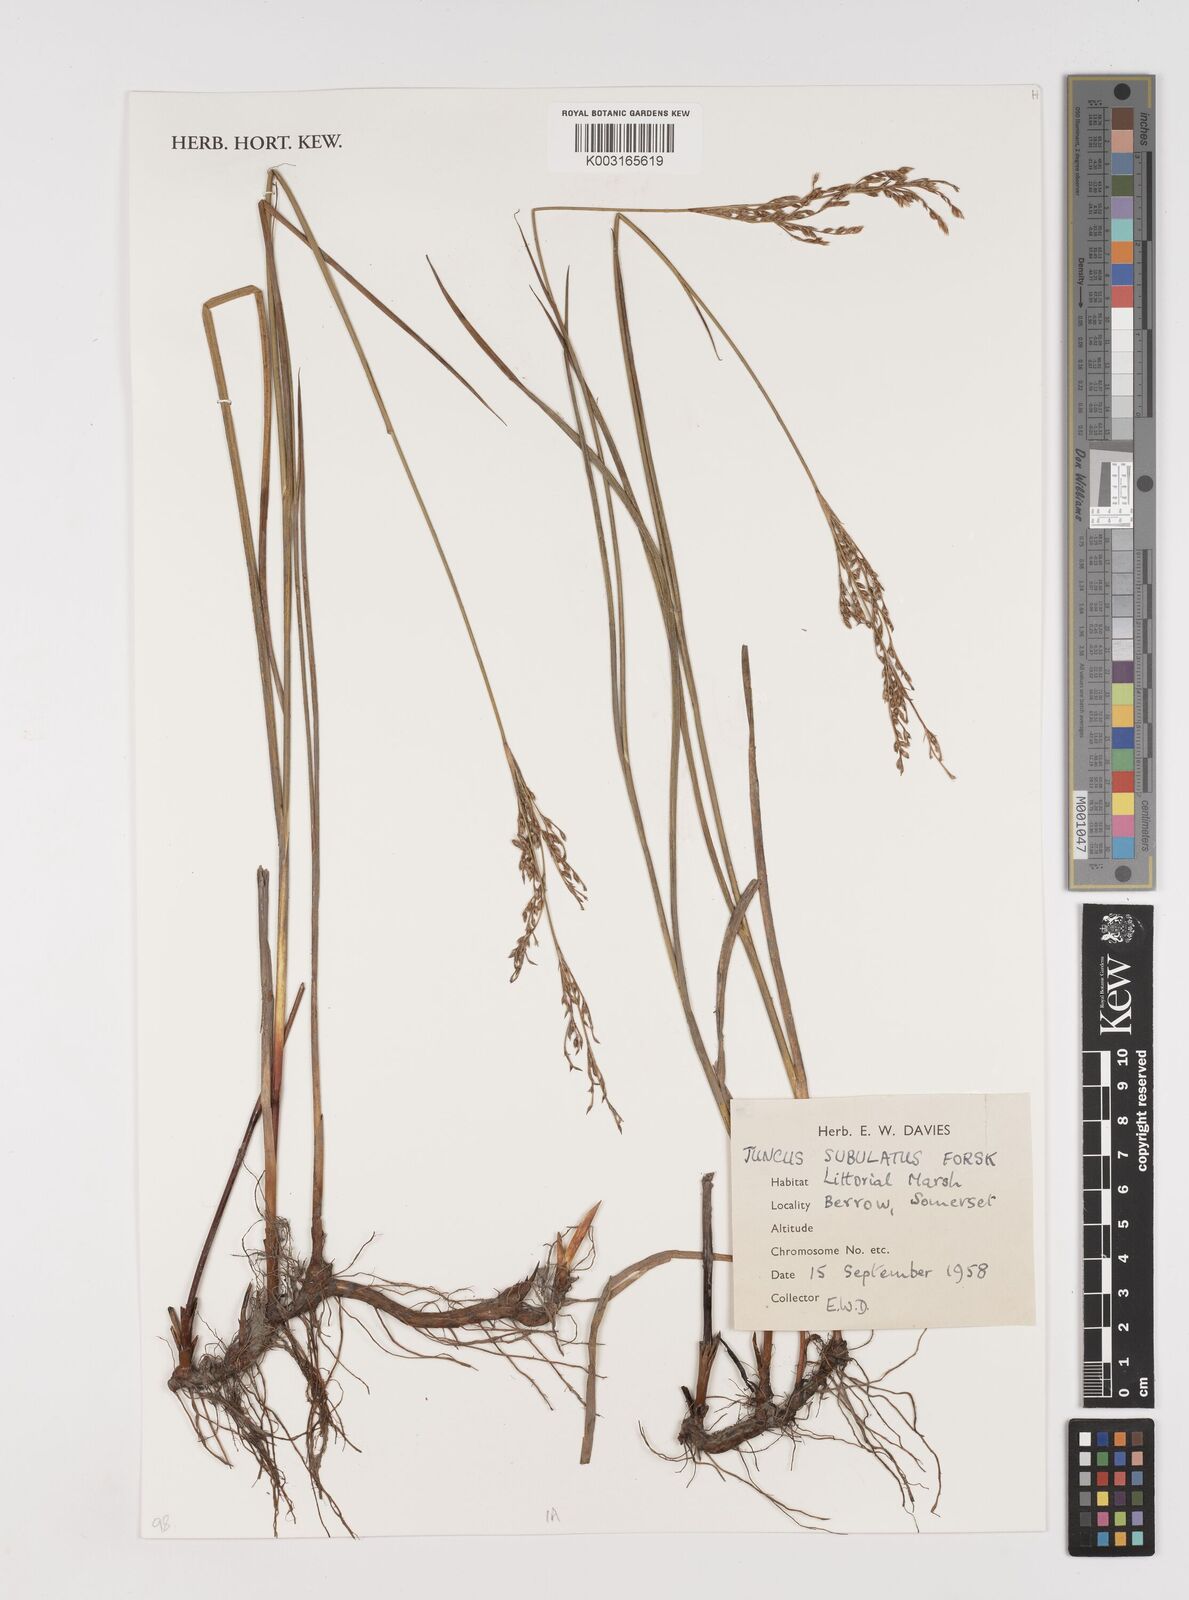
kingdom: Plantae
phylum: Tracheophyta
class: Liliopsida
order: Poales
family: Juncaceae
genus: Juncus
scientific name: Juncus subulatus
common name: Somerset rush
